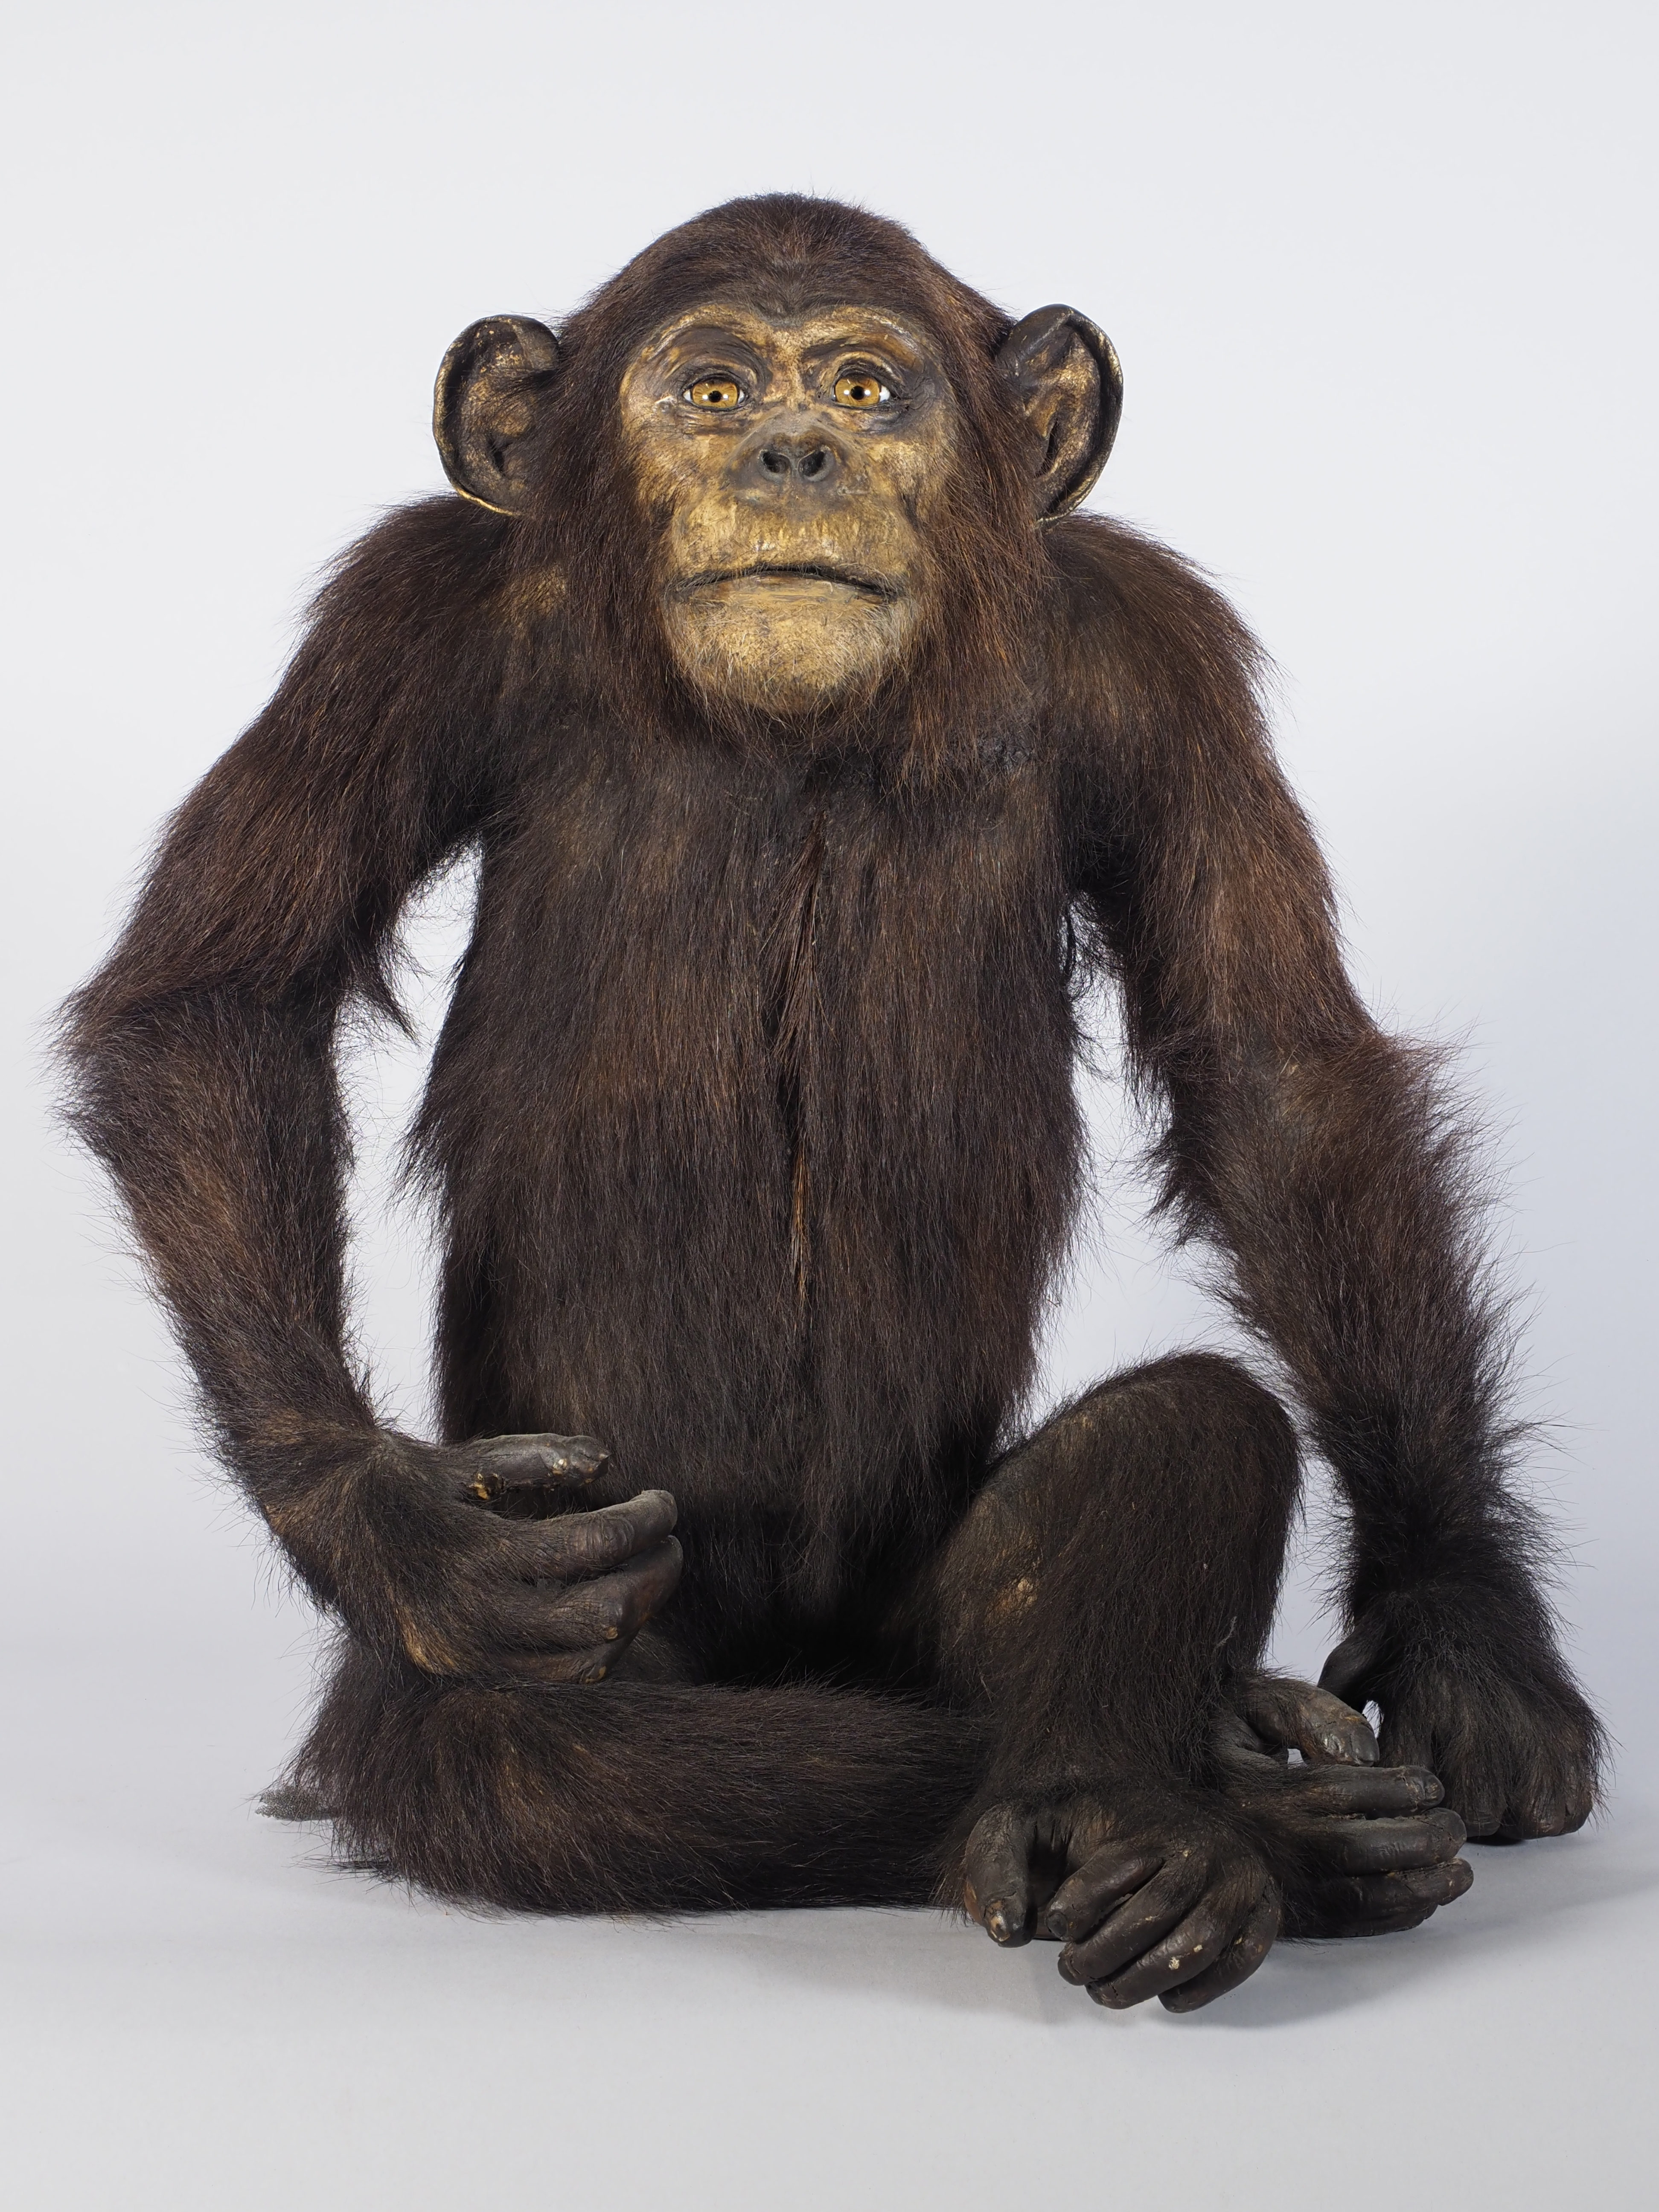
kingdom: Animalia
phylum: Chordata
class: Mammalia
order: Primates
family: Hominidae
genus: Pan
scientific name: Pan troglodytes
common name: Chimpanzee
